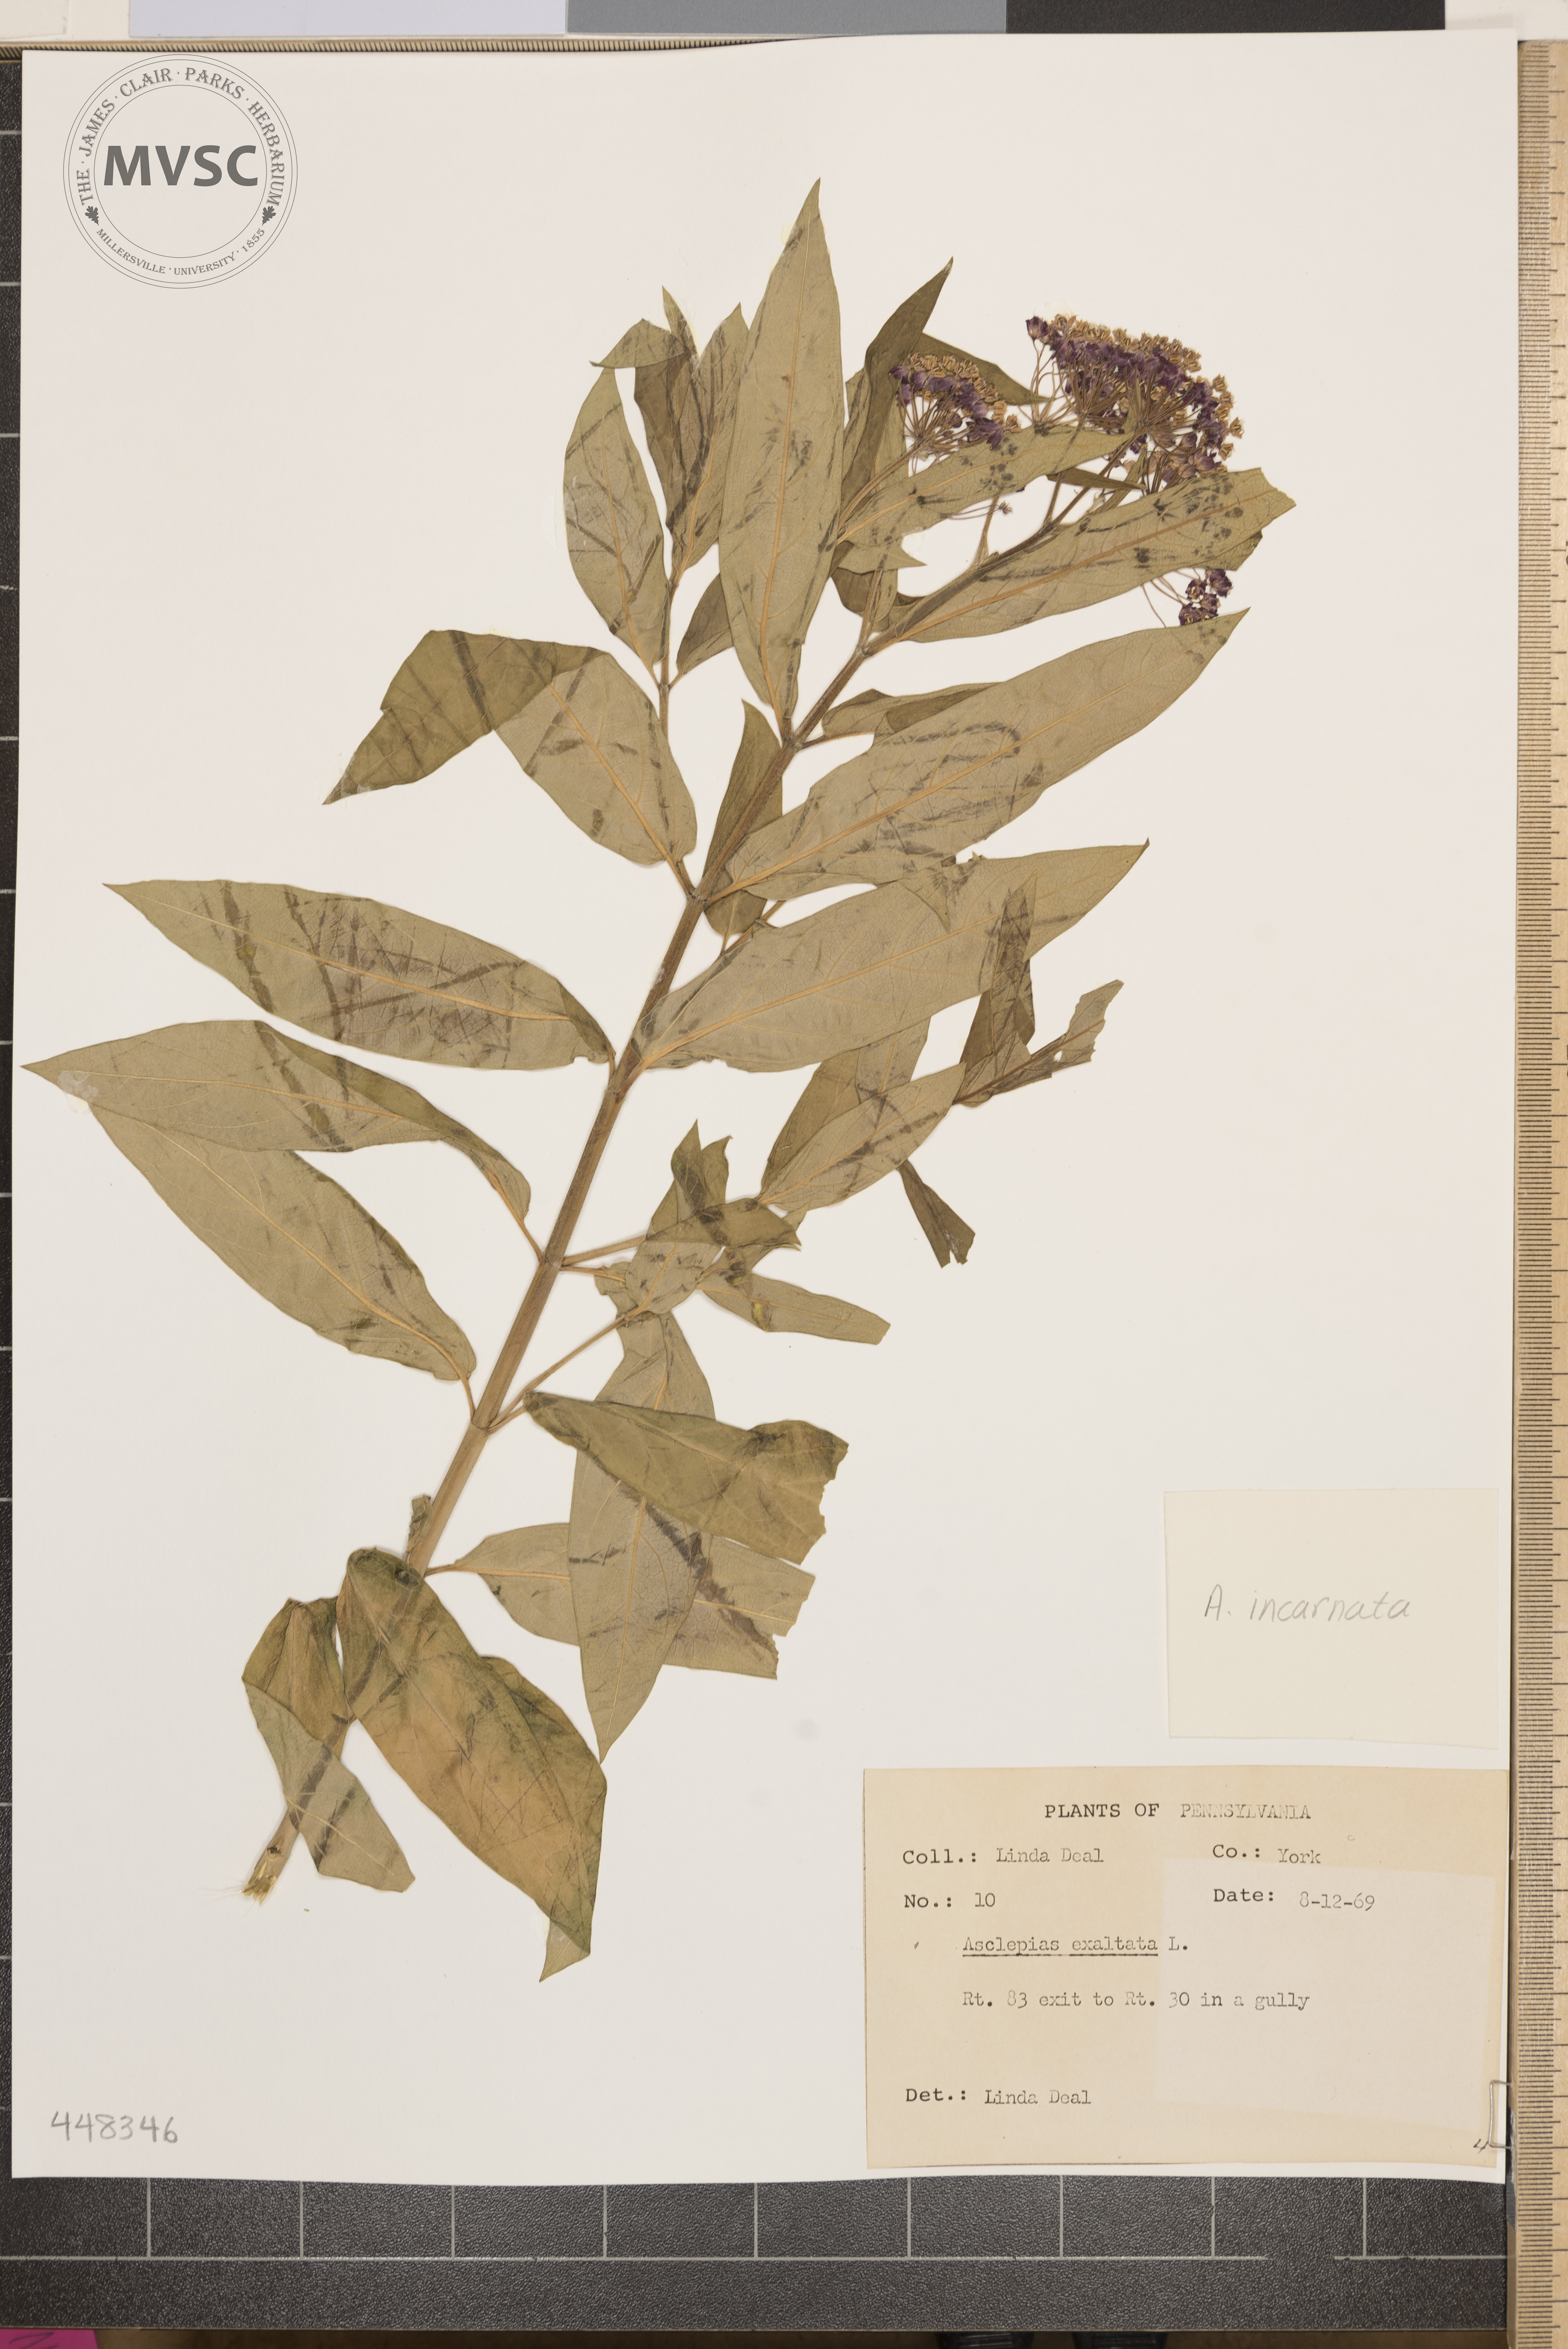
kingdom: Plantae
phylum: Tracheophyta
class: Magnoliopsida
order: Gentianales
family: Apocynaceae
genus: Asclepias
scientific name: Asclepias incarnata
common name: Swamp milkweed
